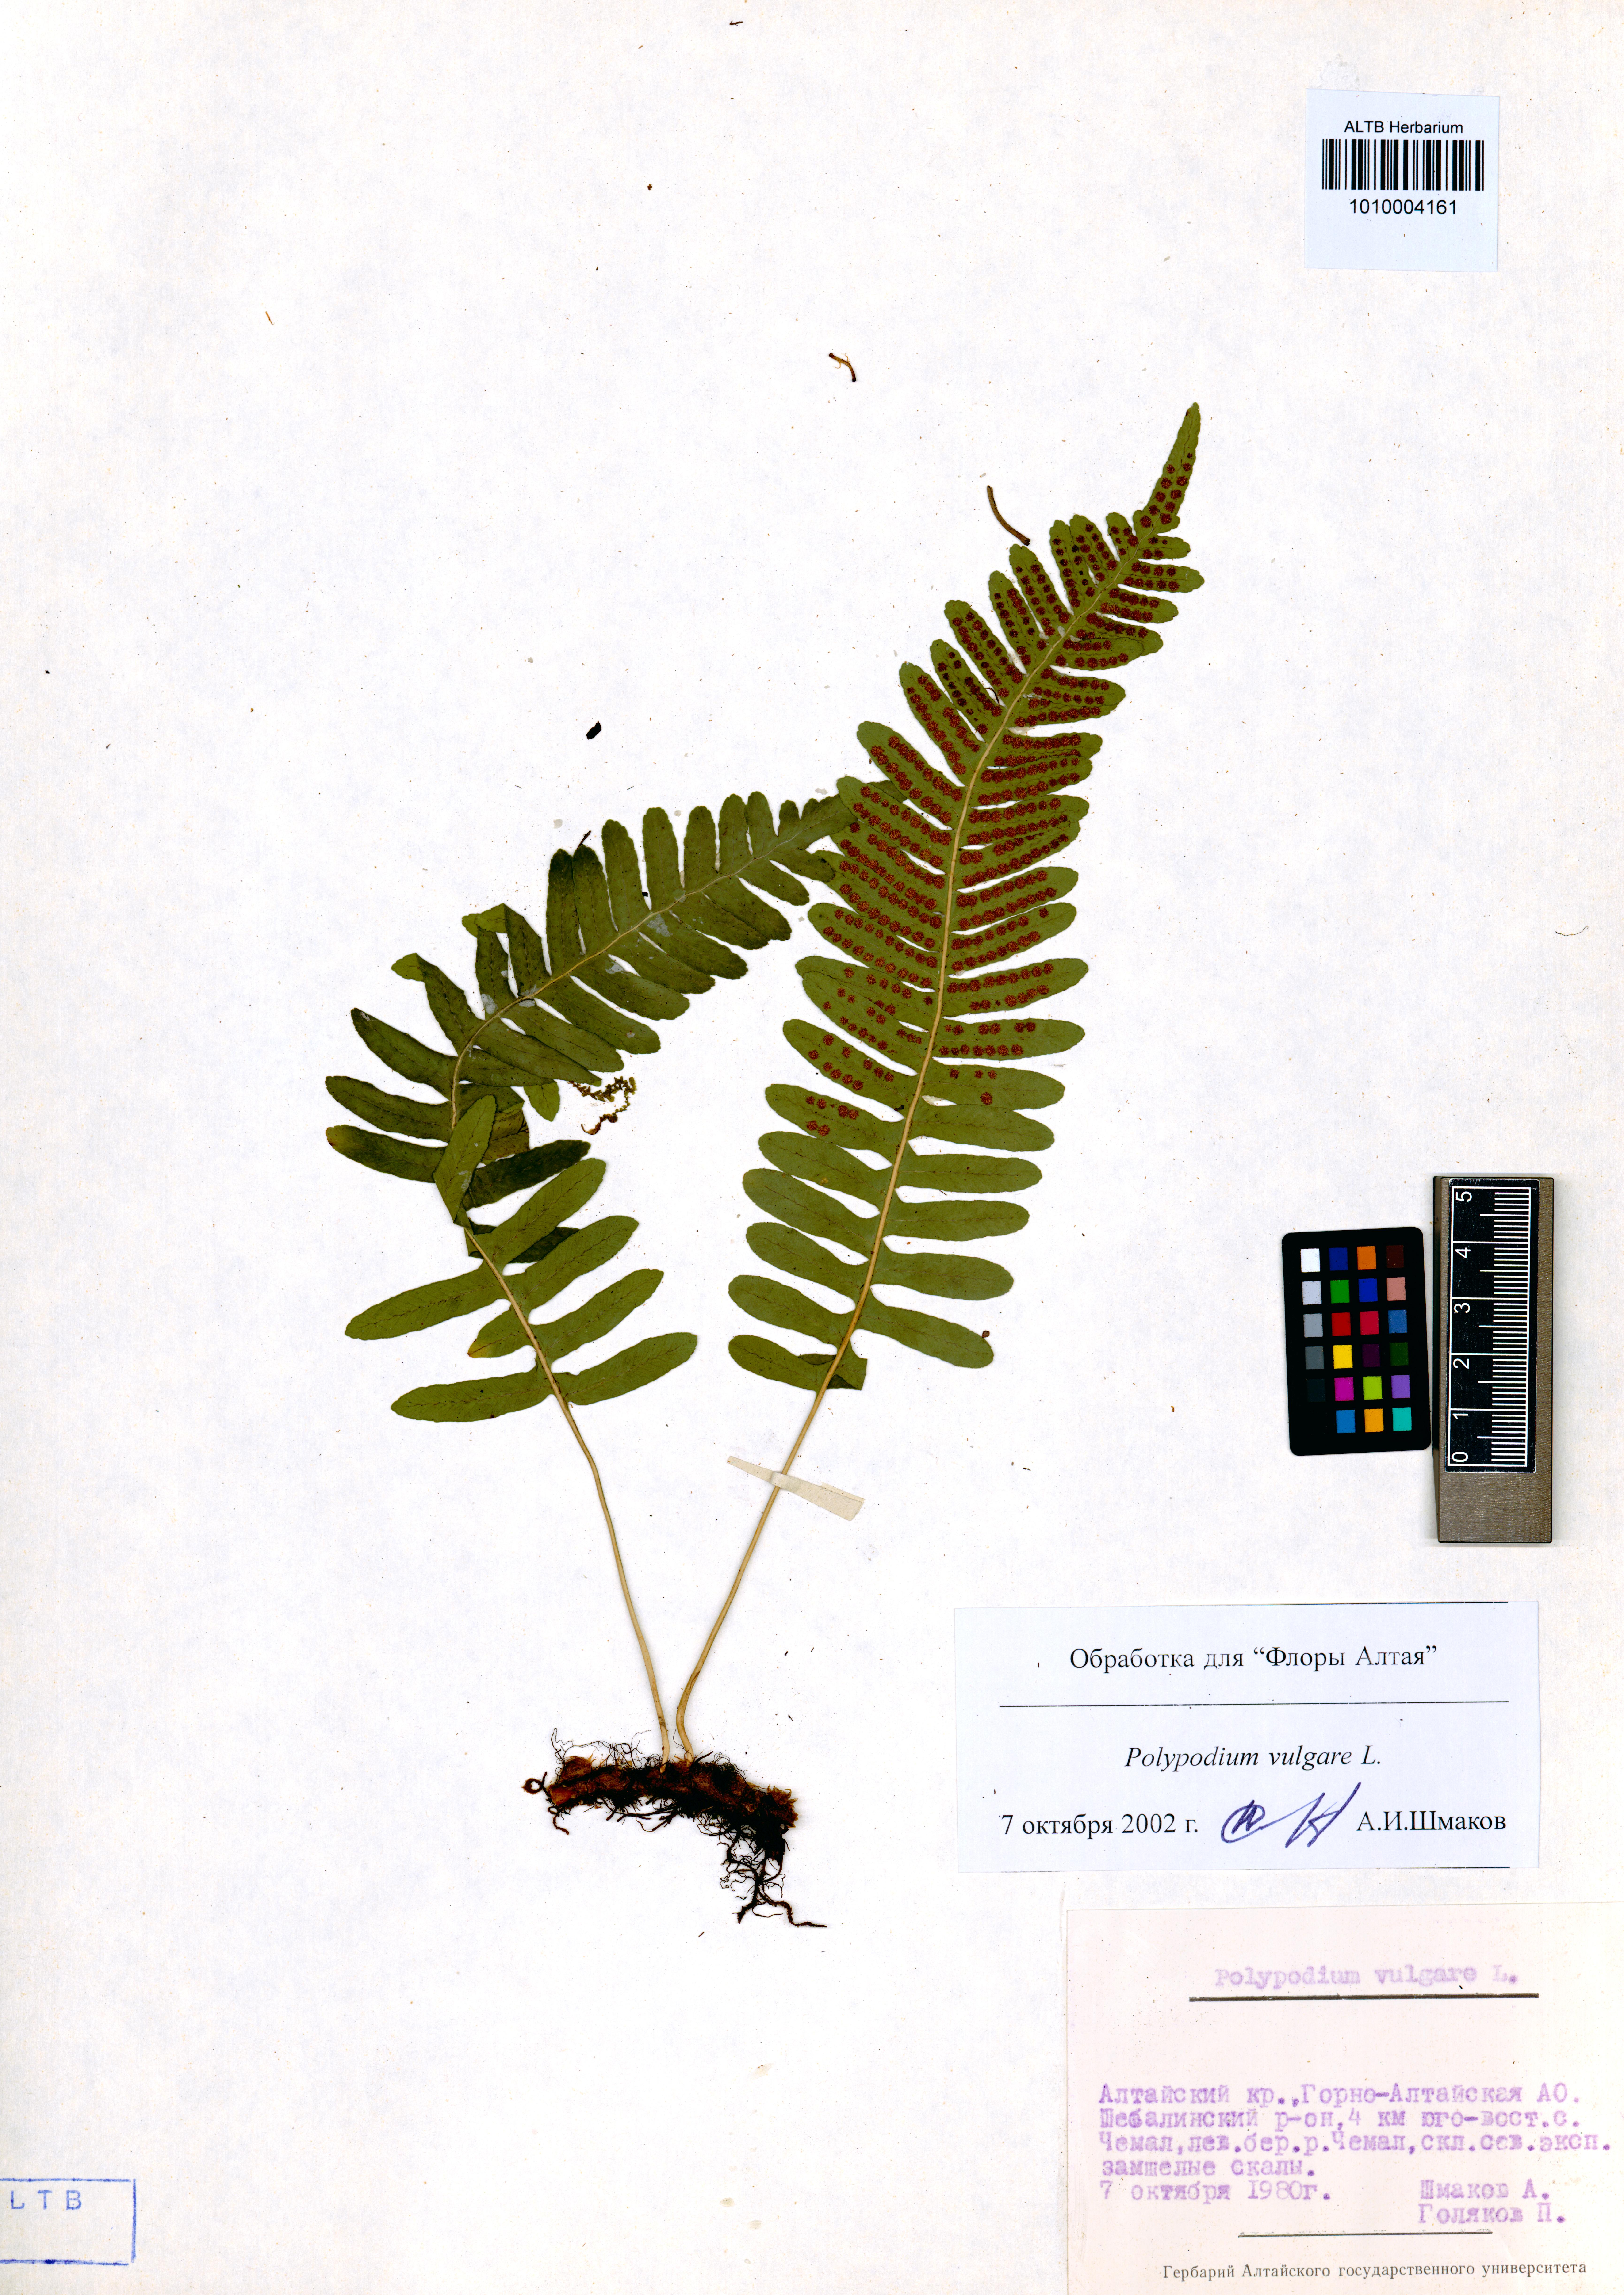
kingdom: Plantae
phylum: Tracheophyta
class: Polypodiopsida
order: Polypodiales
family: Polypodiaceae
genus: Polypodium
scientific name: Polypodium vulgare
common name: Common polypody
